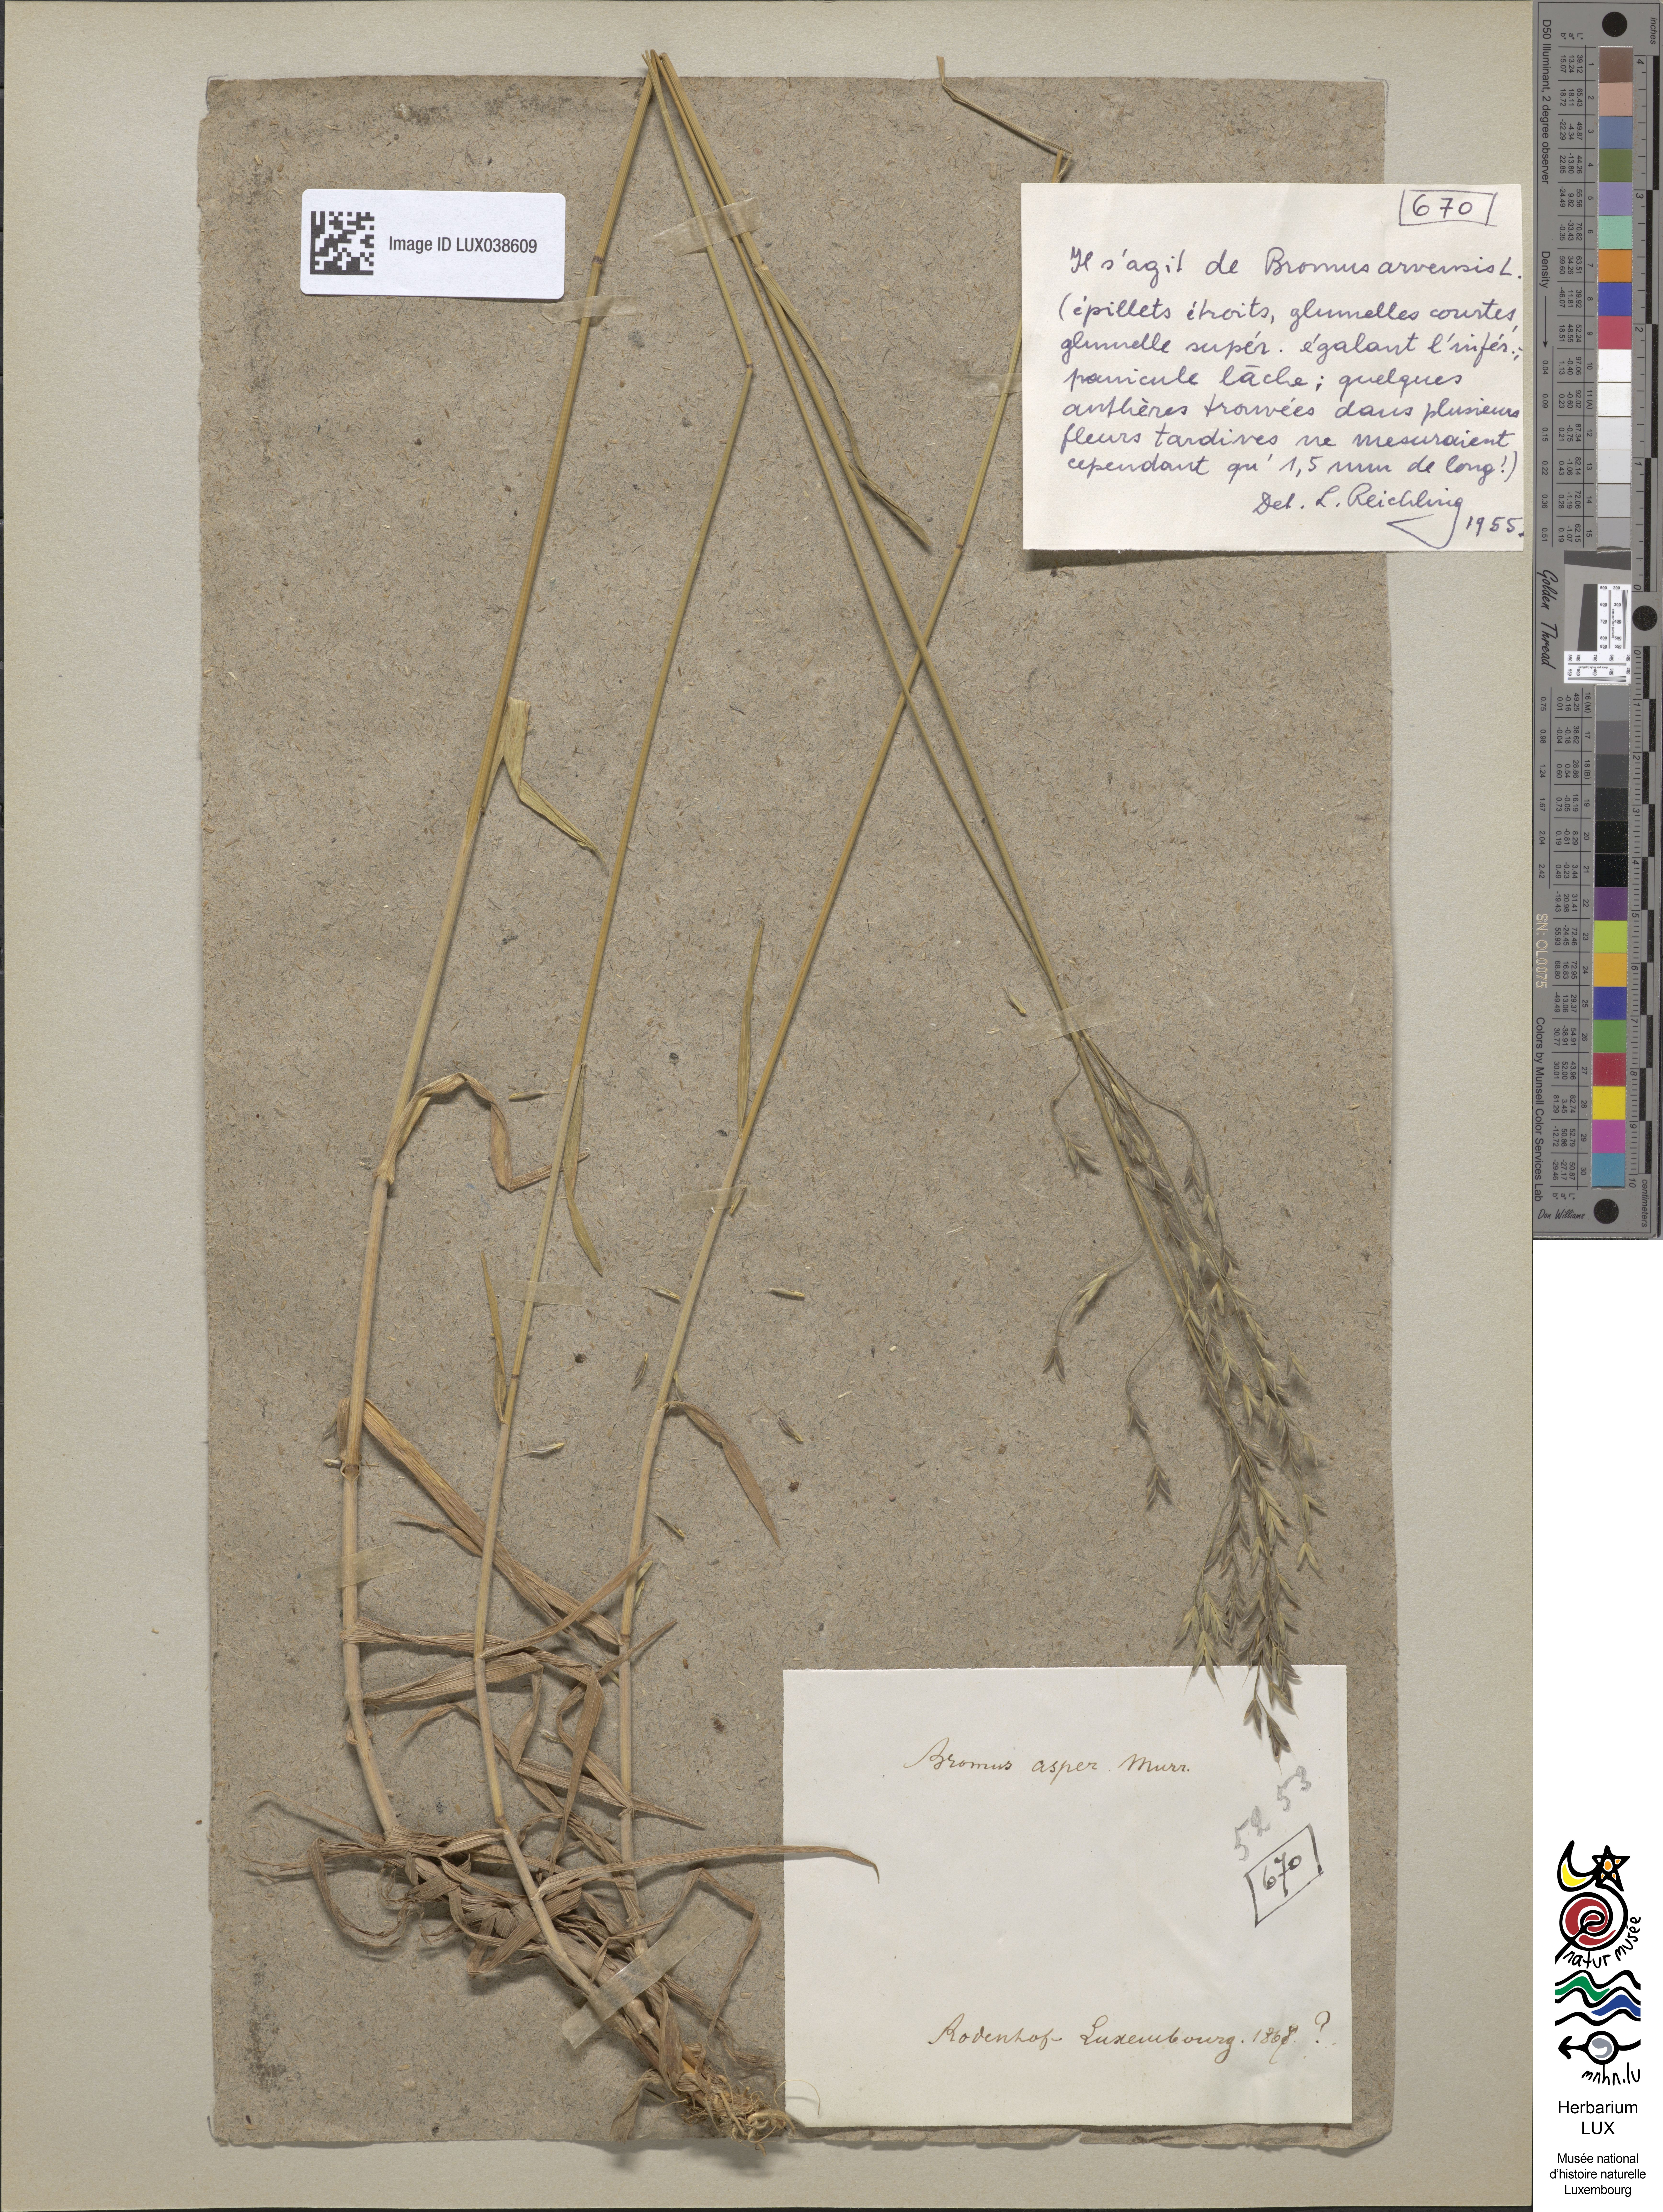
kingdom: Plantae
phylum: Tracheophyta
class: Liliopsida
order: Poales
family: Poaceae
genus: Bromus
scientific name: Bromus ramosus
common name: Hairy brome
